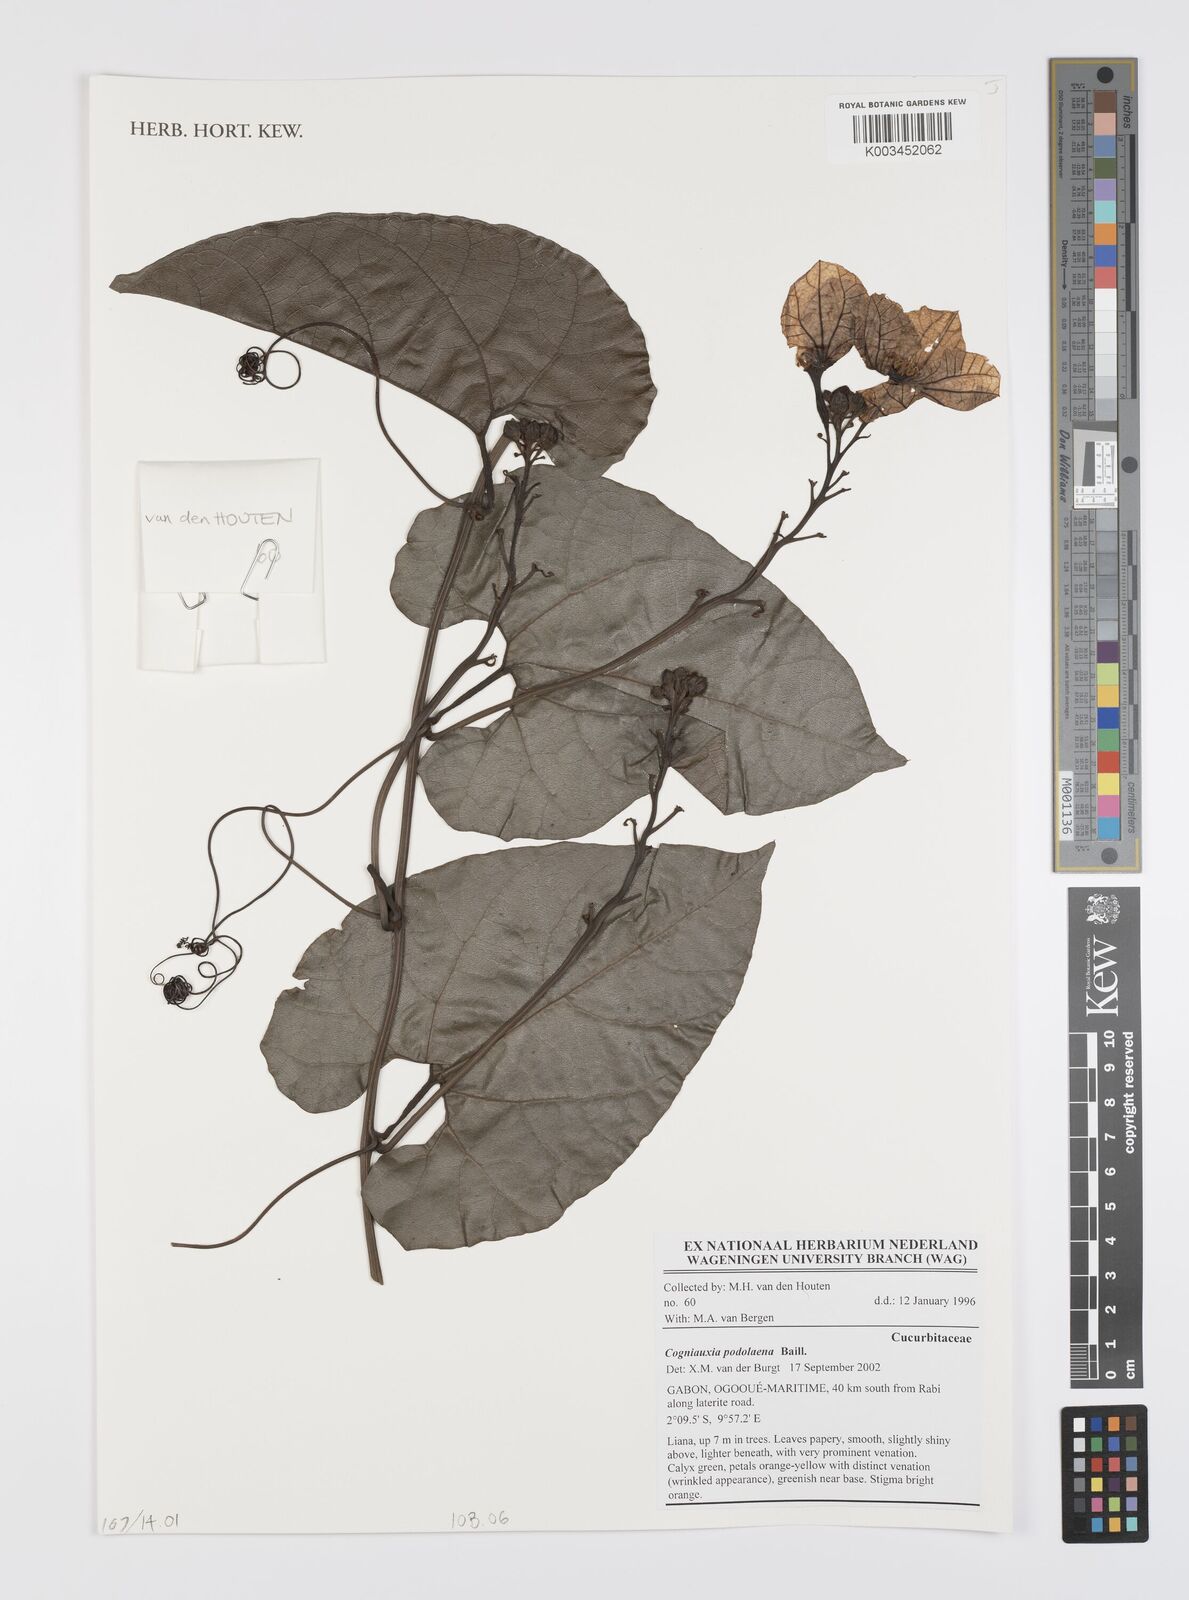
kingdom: Plantae
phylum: Tracheophyta
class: Magnoliopsida
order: Cucurbitales
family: Cucurbitaceae
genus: Cogniauxia
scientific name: Cogniauxia podolaena
